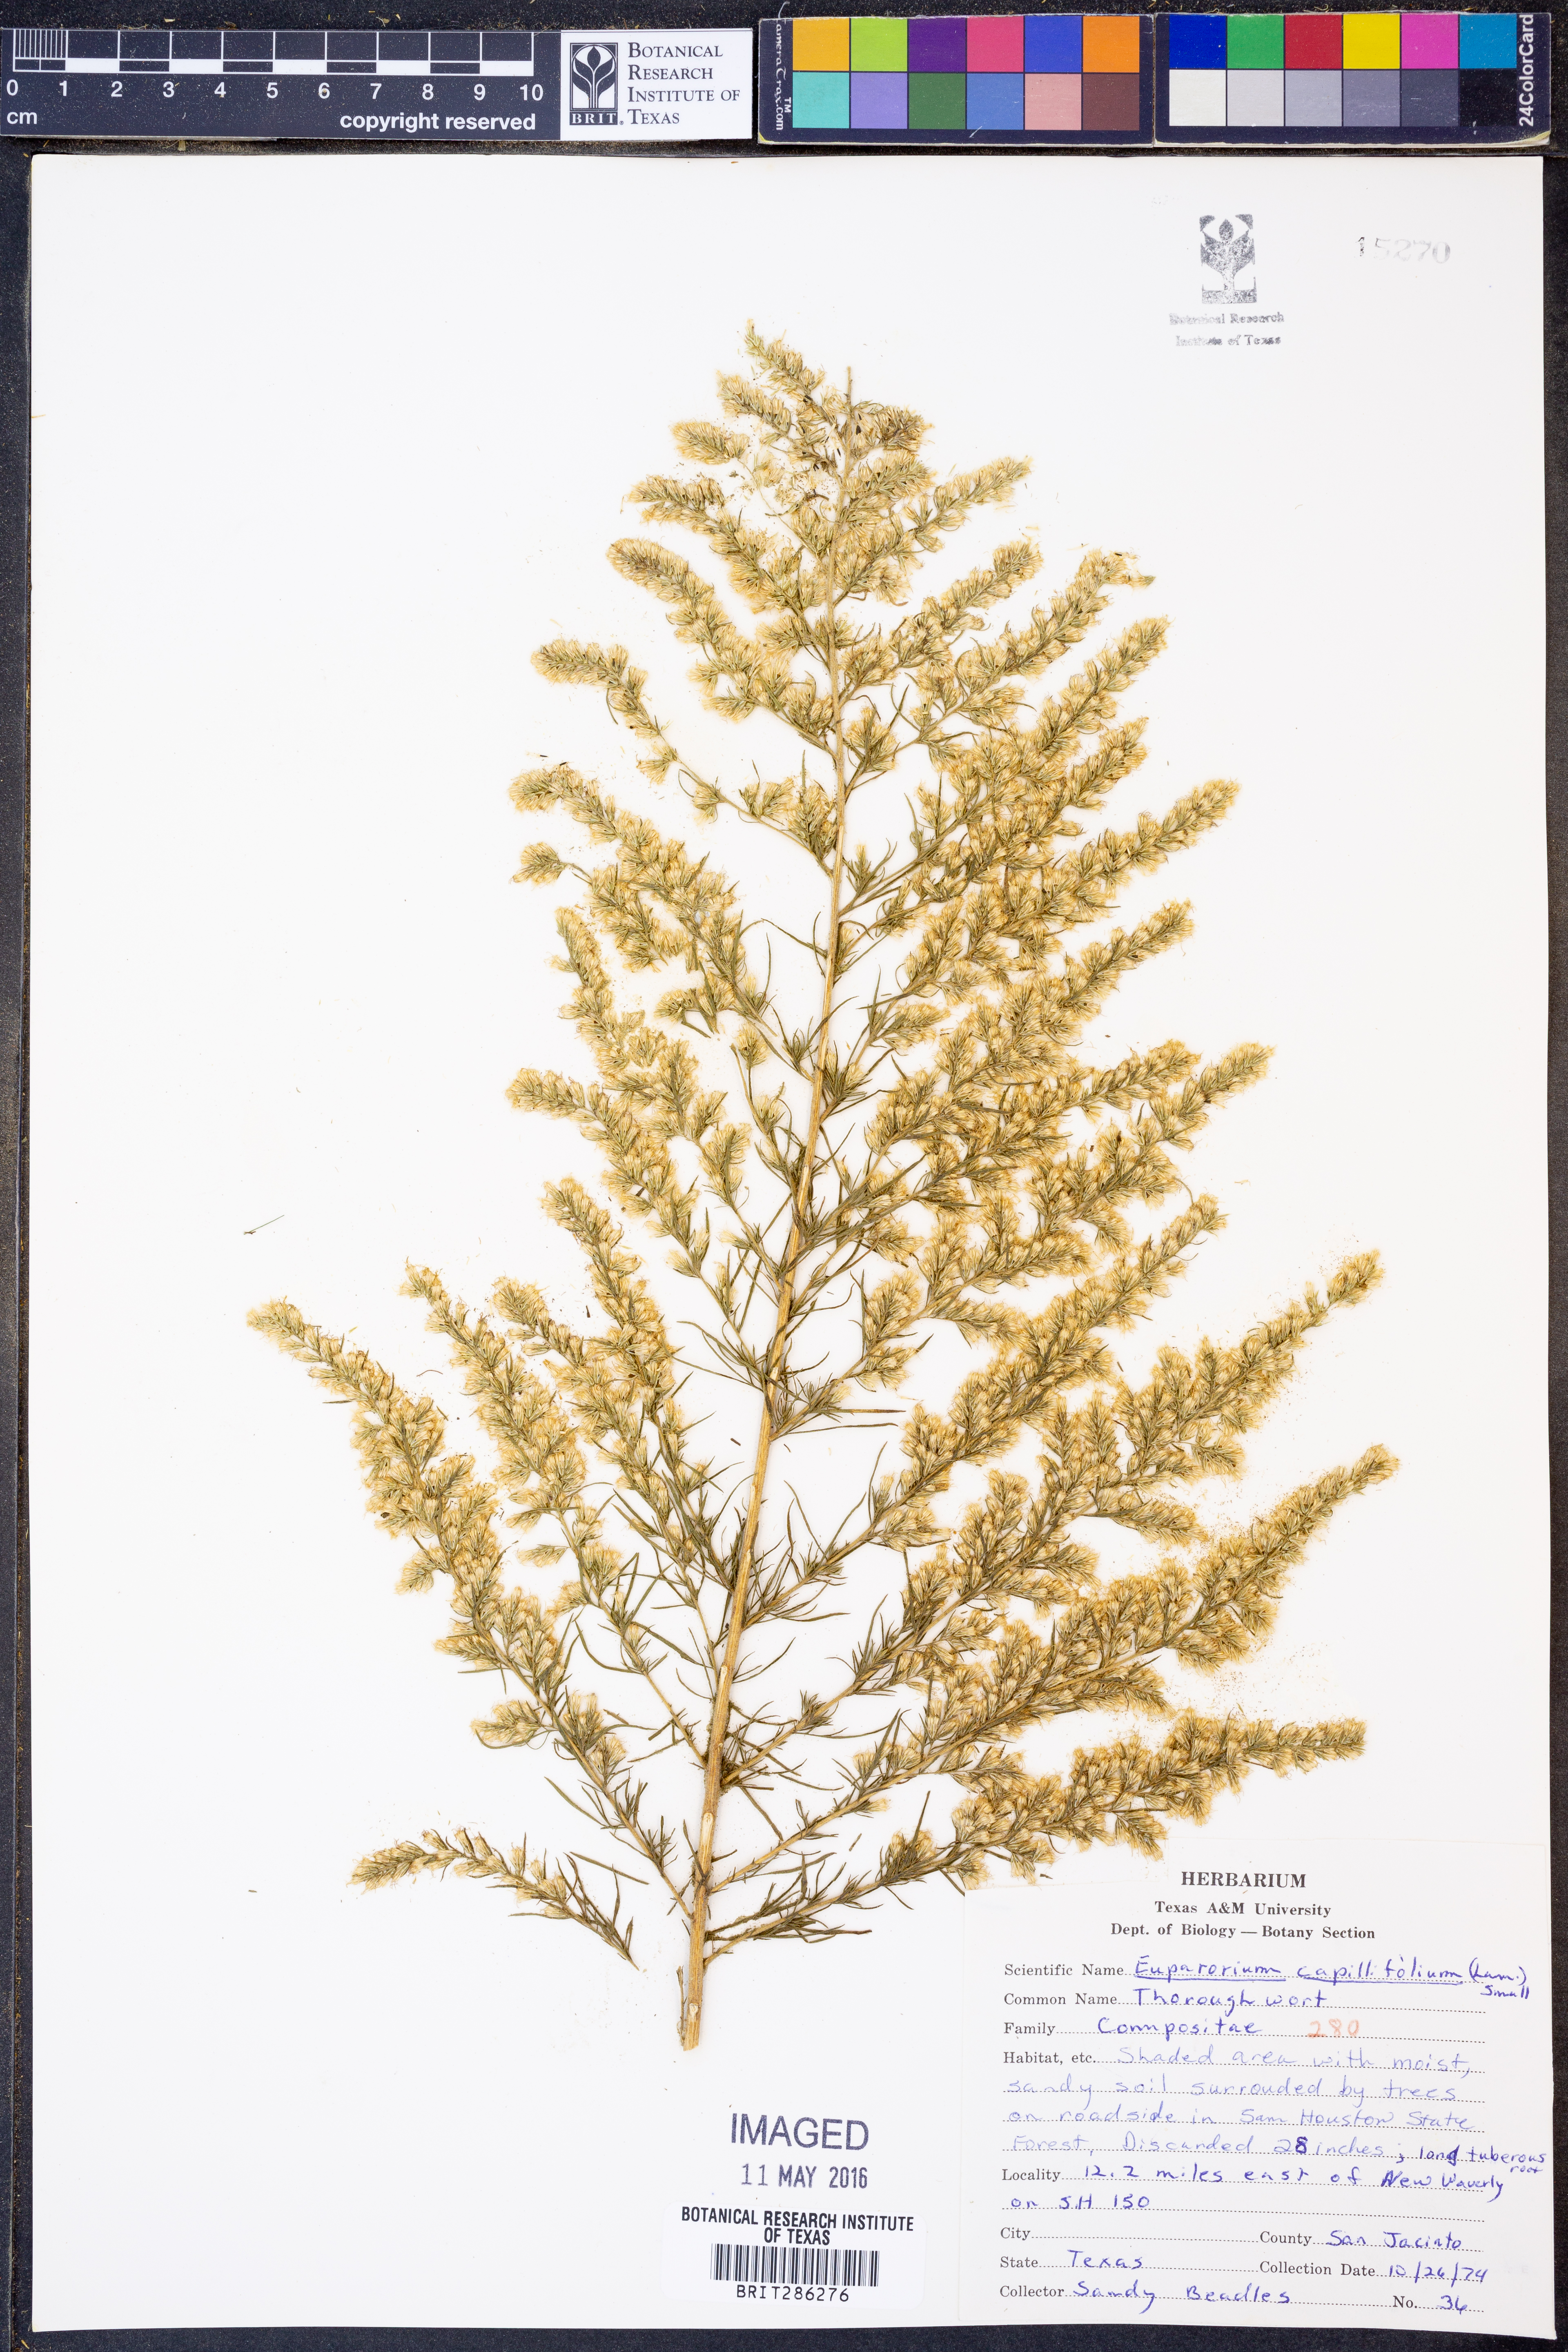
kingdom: Plantae
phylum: Tracheophyta
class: Magnoliopsida
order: Asterales
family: Asteraceae
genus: Eupatorium
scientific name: Eupatorium capillifolium
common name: Dog-fennel
